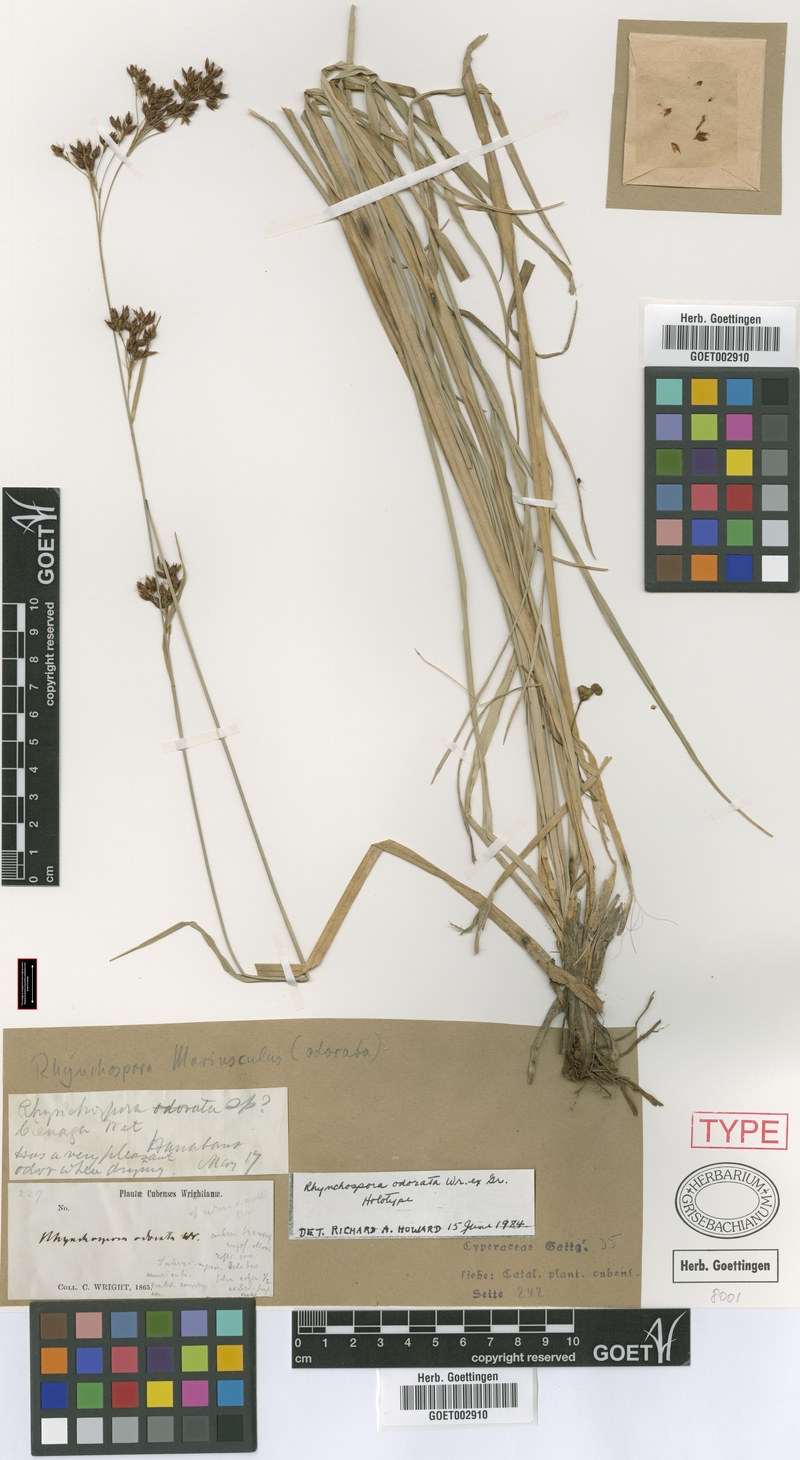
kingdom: Plantae
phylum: Tracheophyta
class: Liliopsida
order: Poales
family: Cyperaceae
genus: Rhynchospora
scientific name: Rhynchospora odorata
